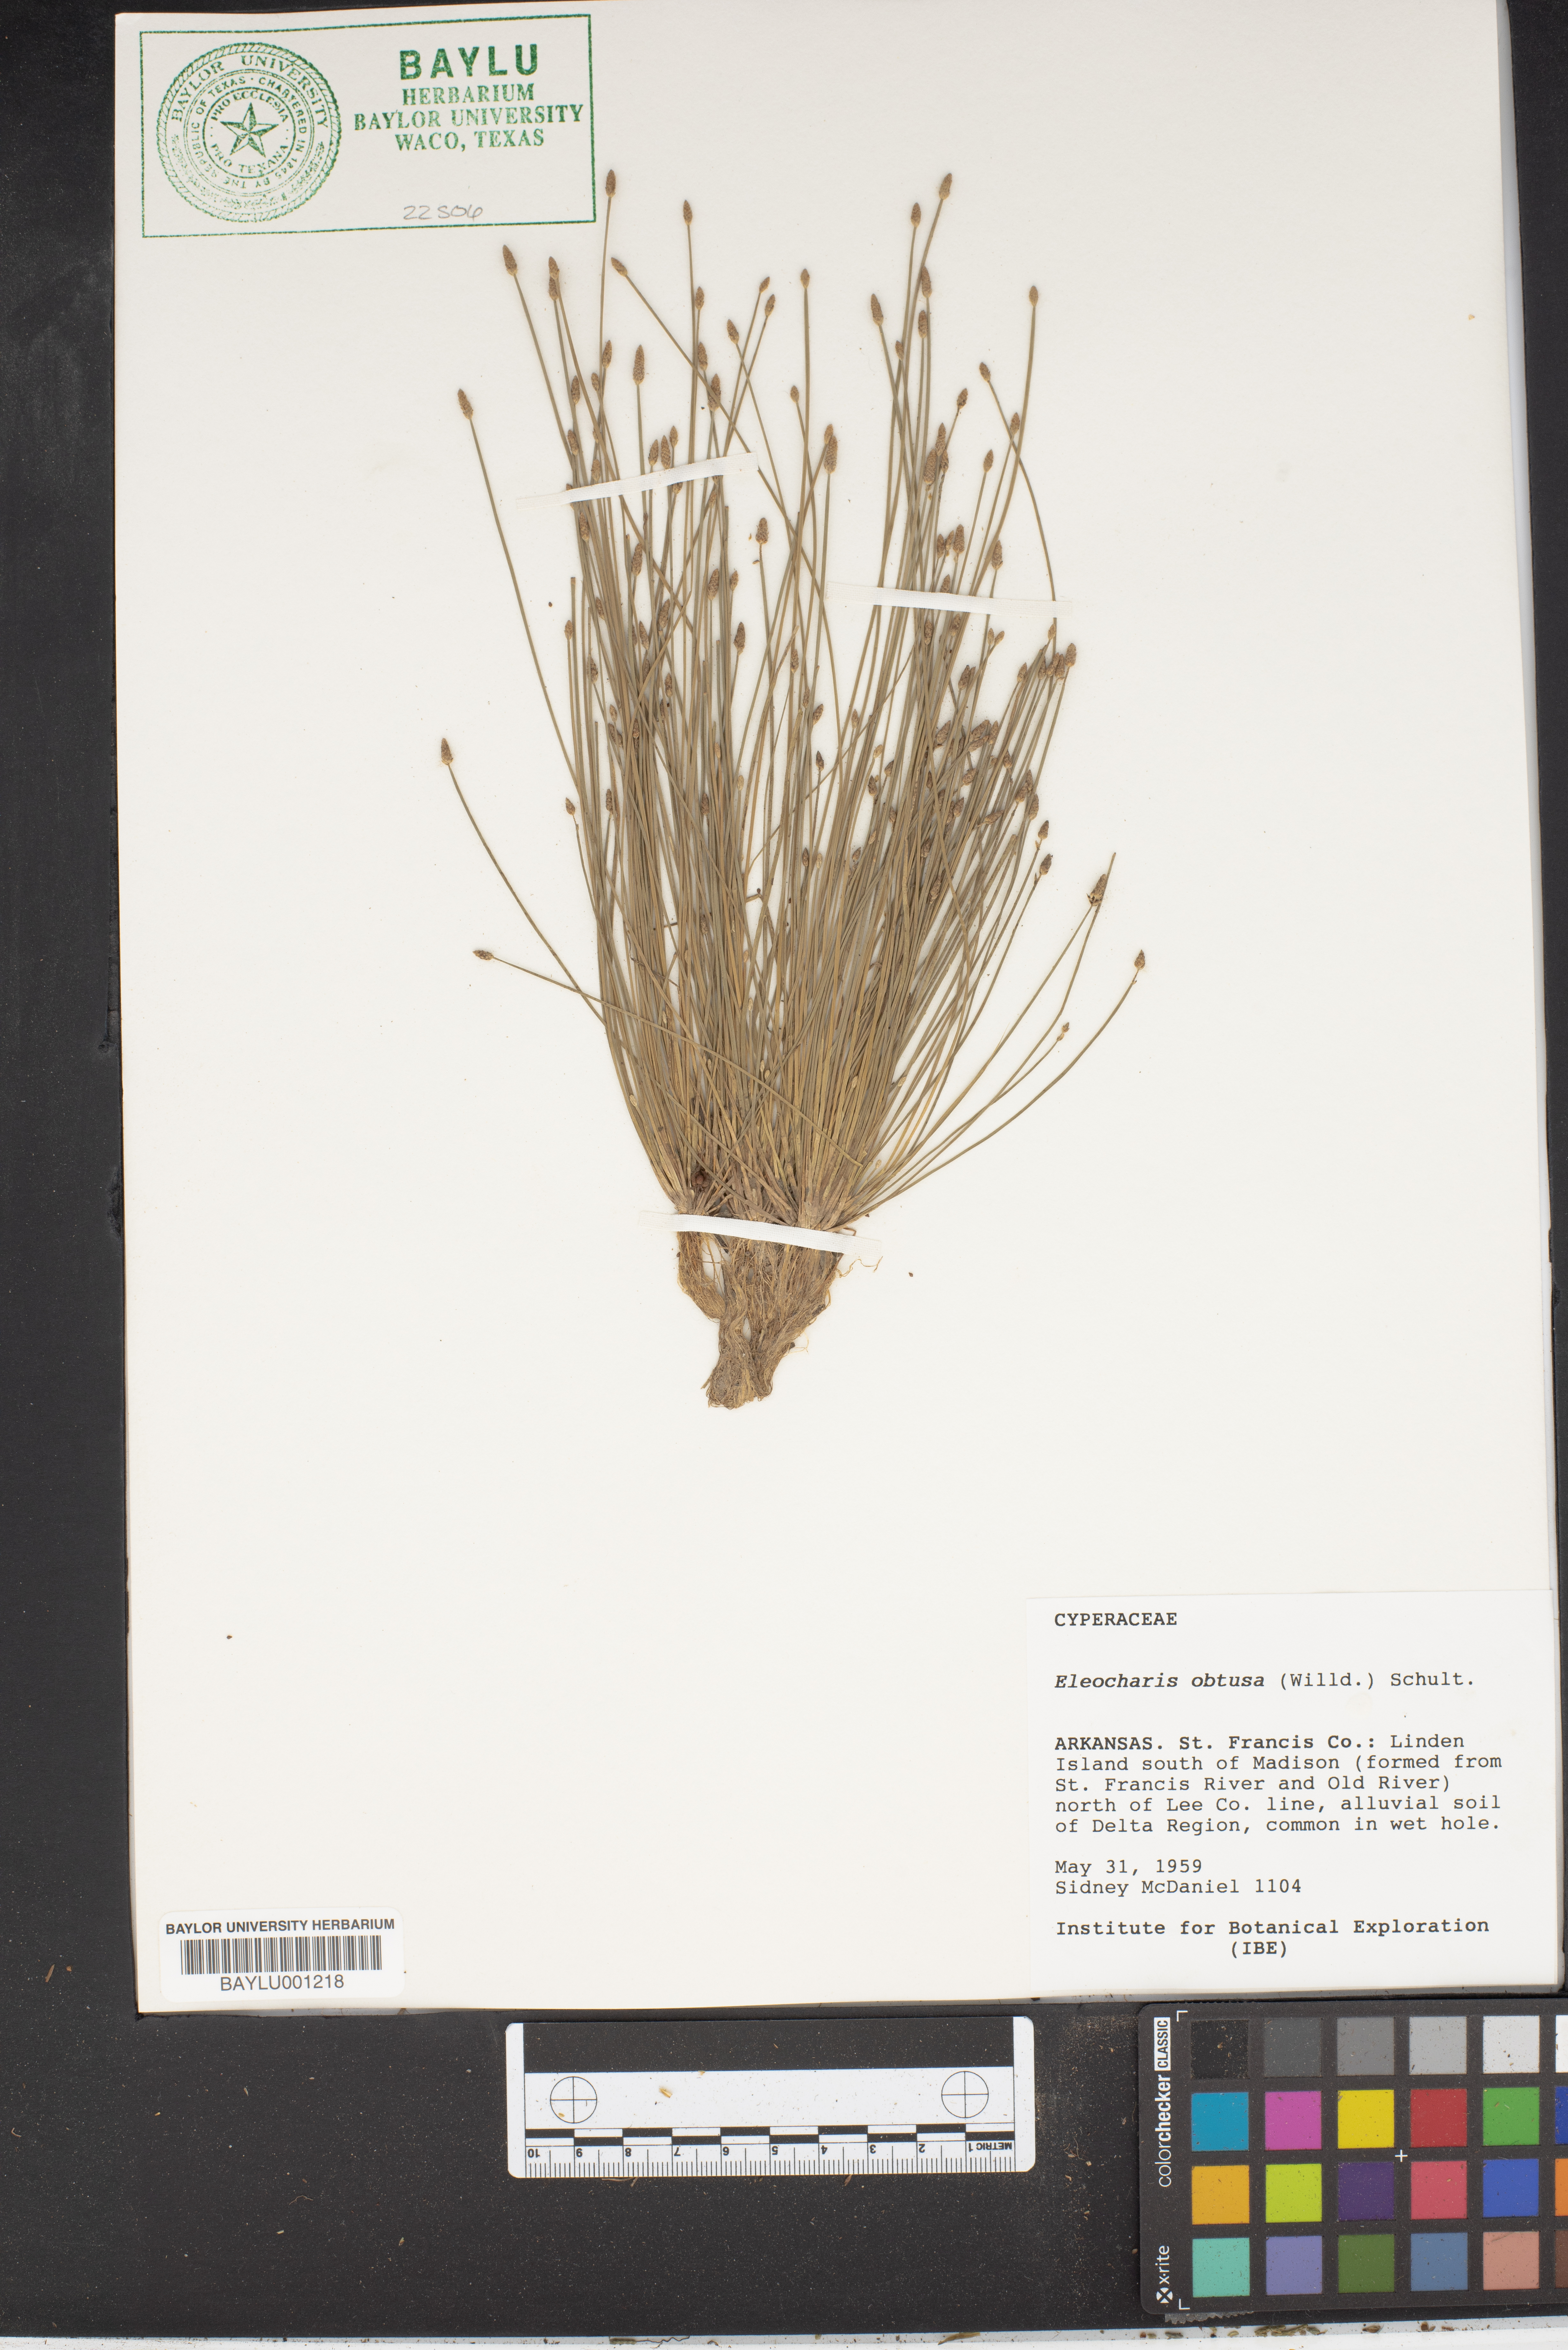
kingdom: Plantae
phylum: Tracheophyta
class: Liliopsida
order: Poales
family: Cyperaceae
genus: Eleocharis
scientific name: Eleocharis obtusa
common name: Blunt spikerush
